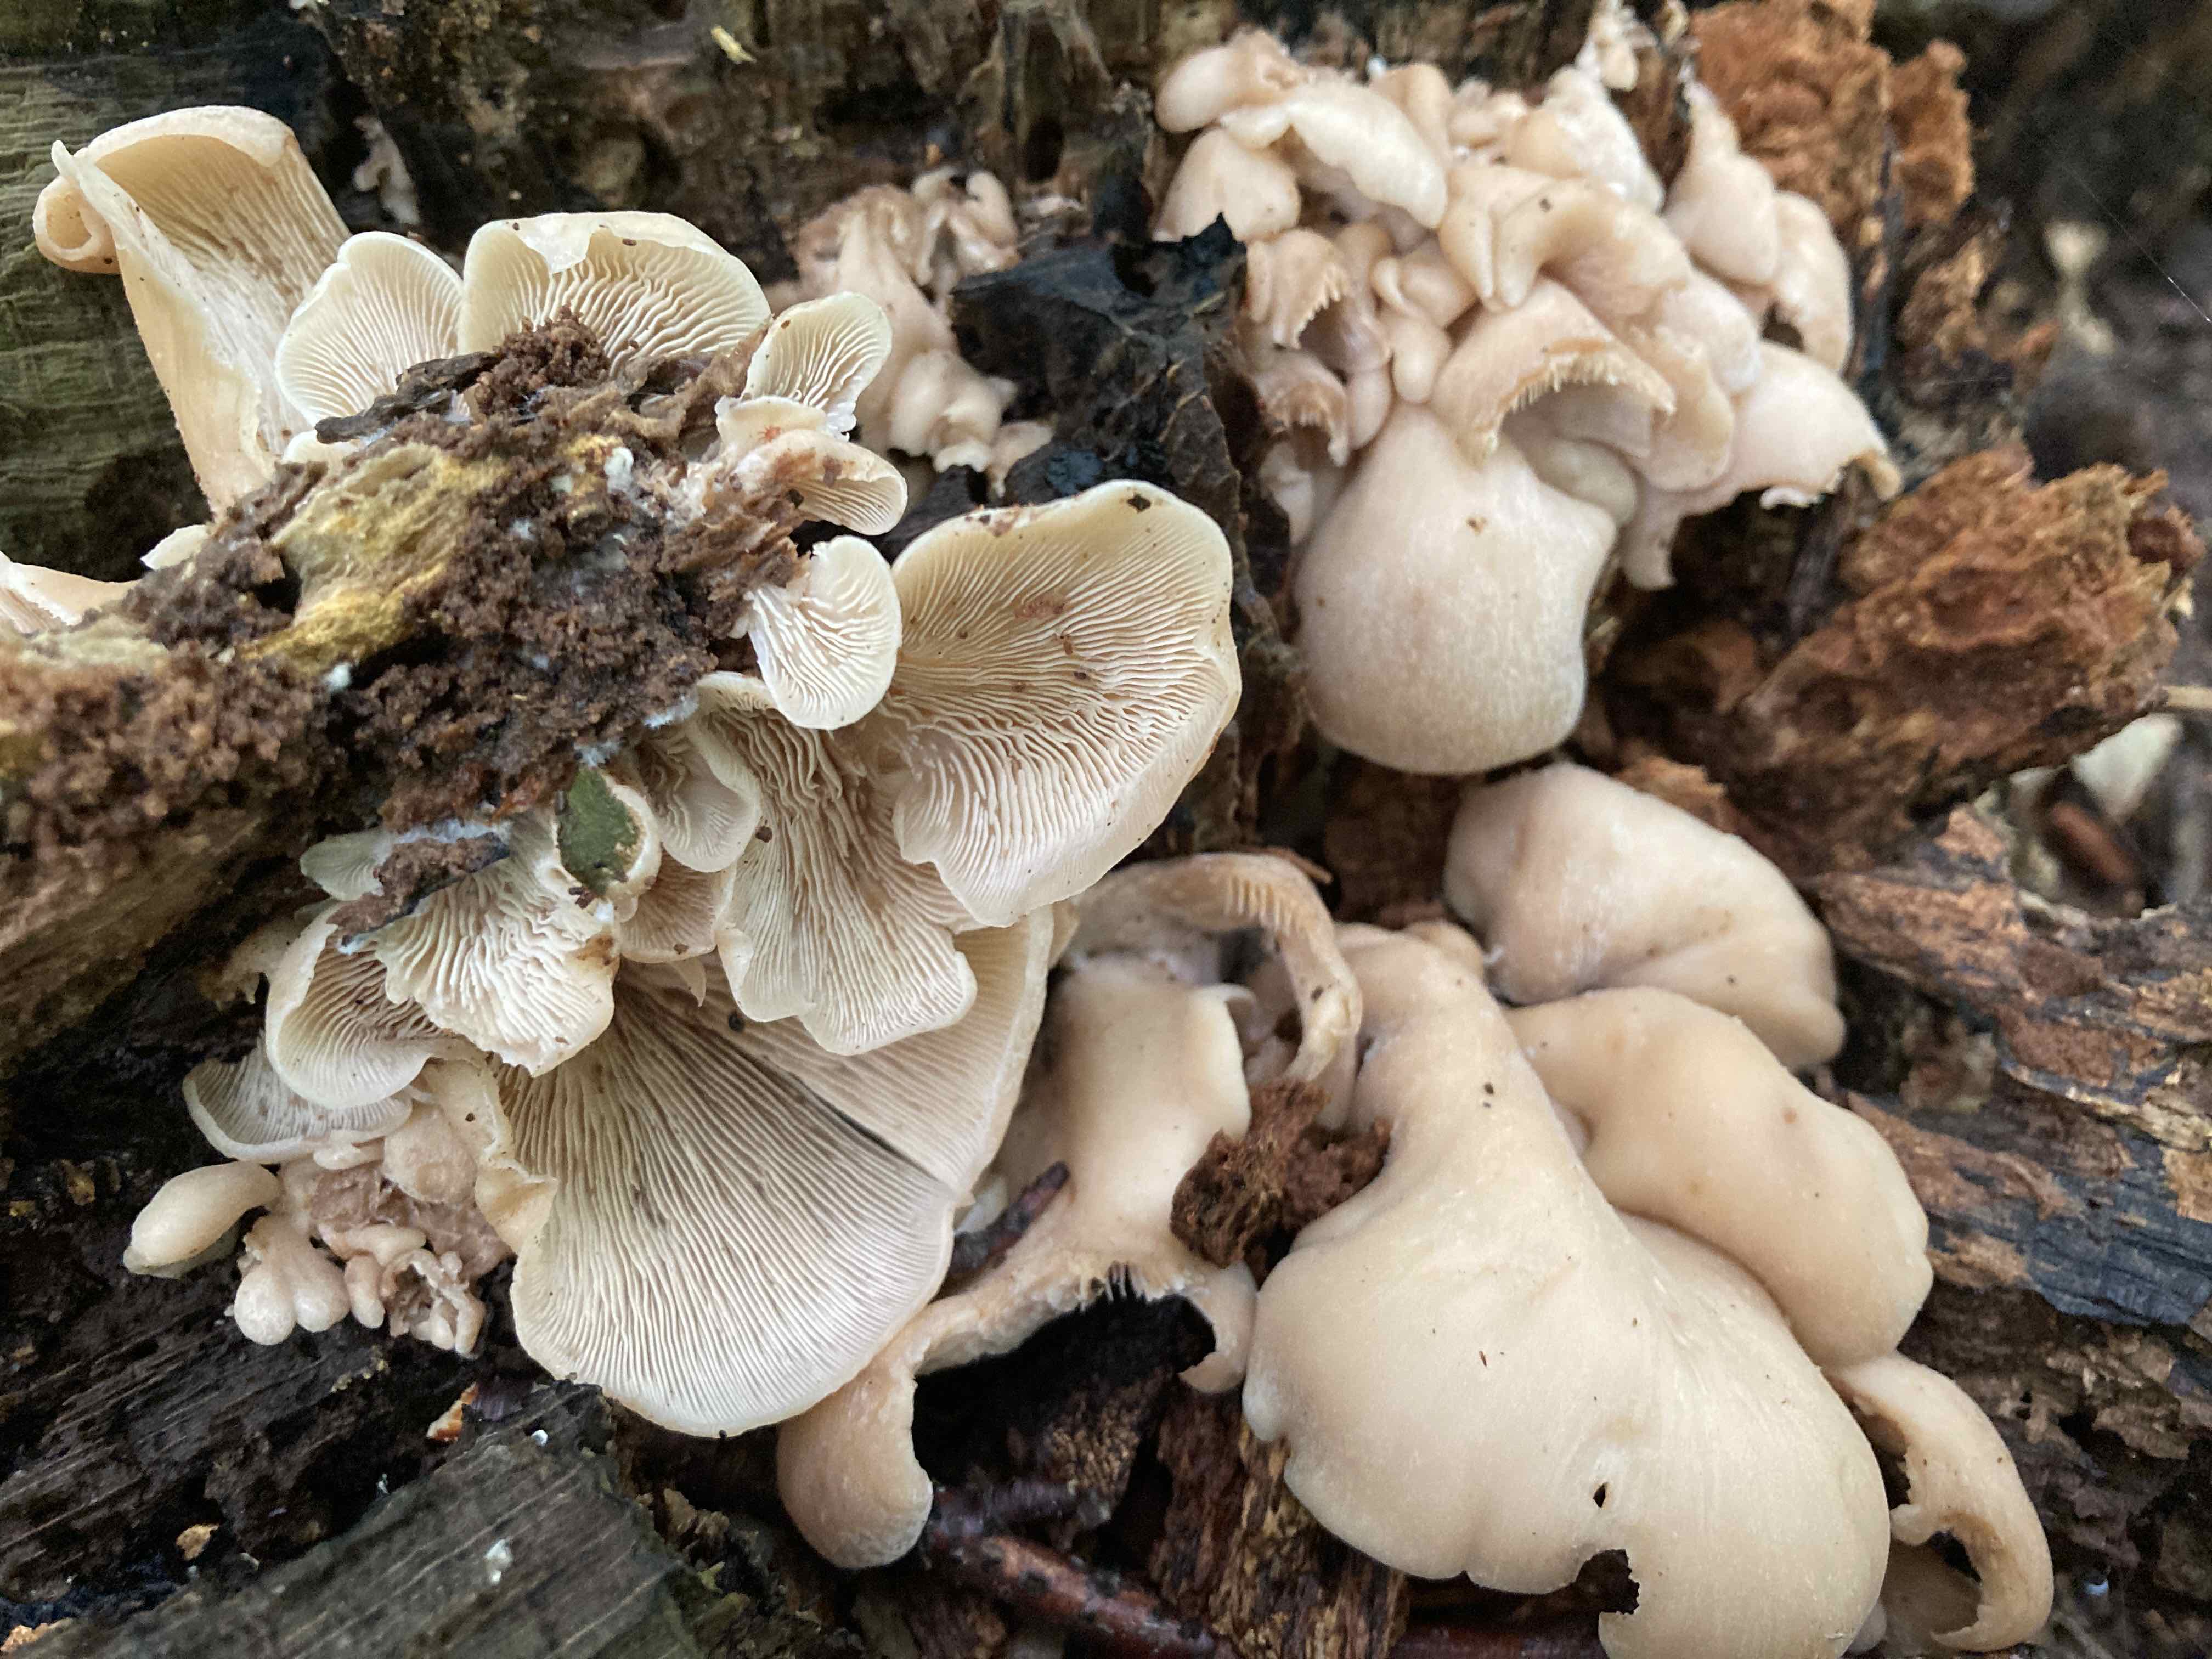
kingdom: Fungi
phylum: Basidiomycota
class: Agaricomycetes
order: Russulales
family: Auriscalpiaceae
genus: Lentinellus
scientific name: Lentinellus ursinus
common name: børstehåret savbladhat
